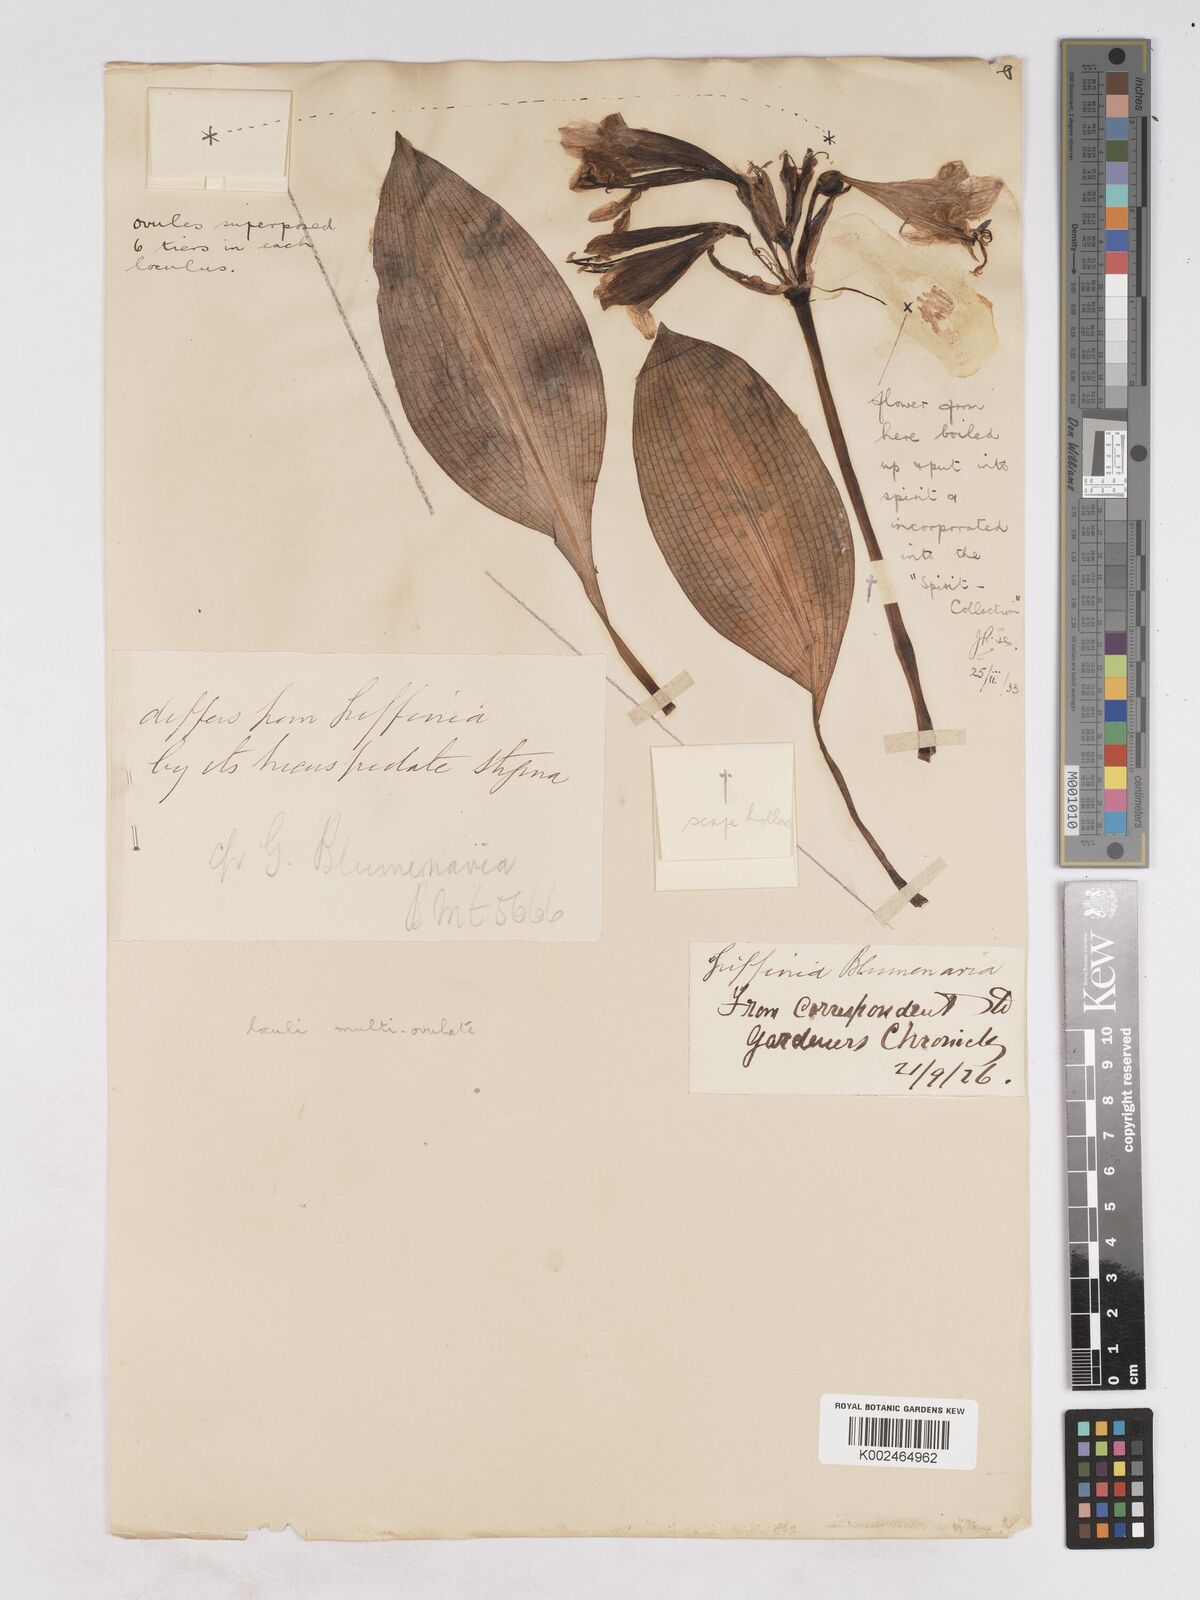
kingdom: Plantae
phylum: Tracheophyta
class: Liliopsida
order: Asparagales
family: Amaryllidaceae
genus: Zephyranthes
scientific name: Zephyranthes blumenavia
